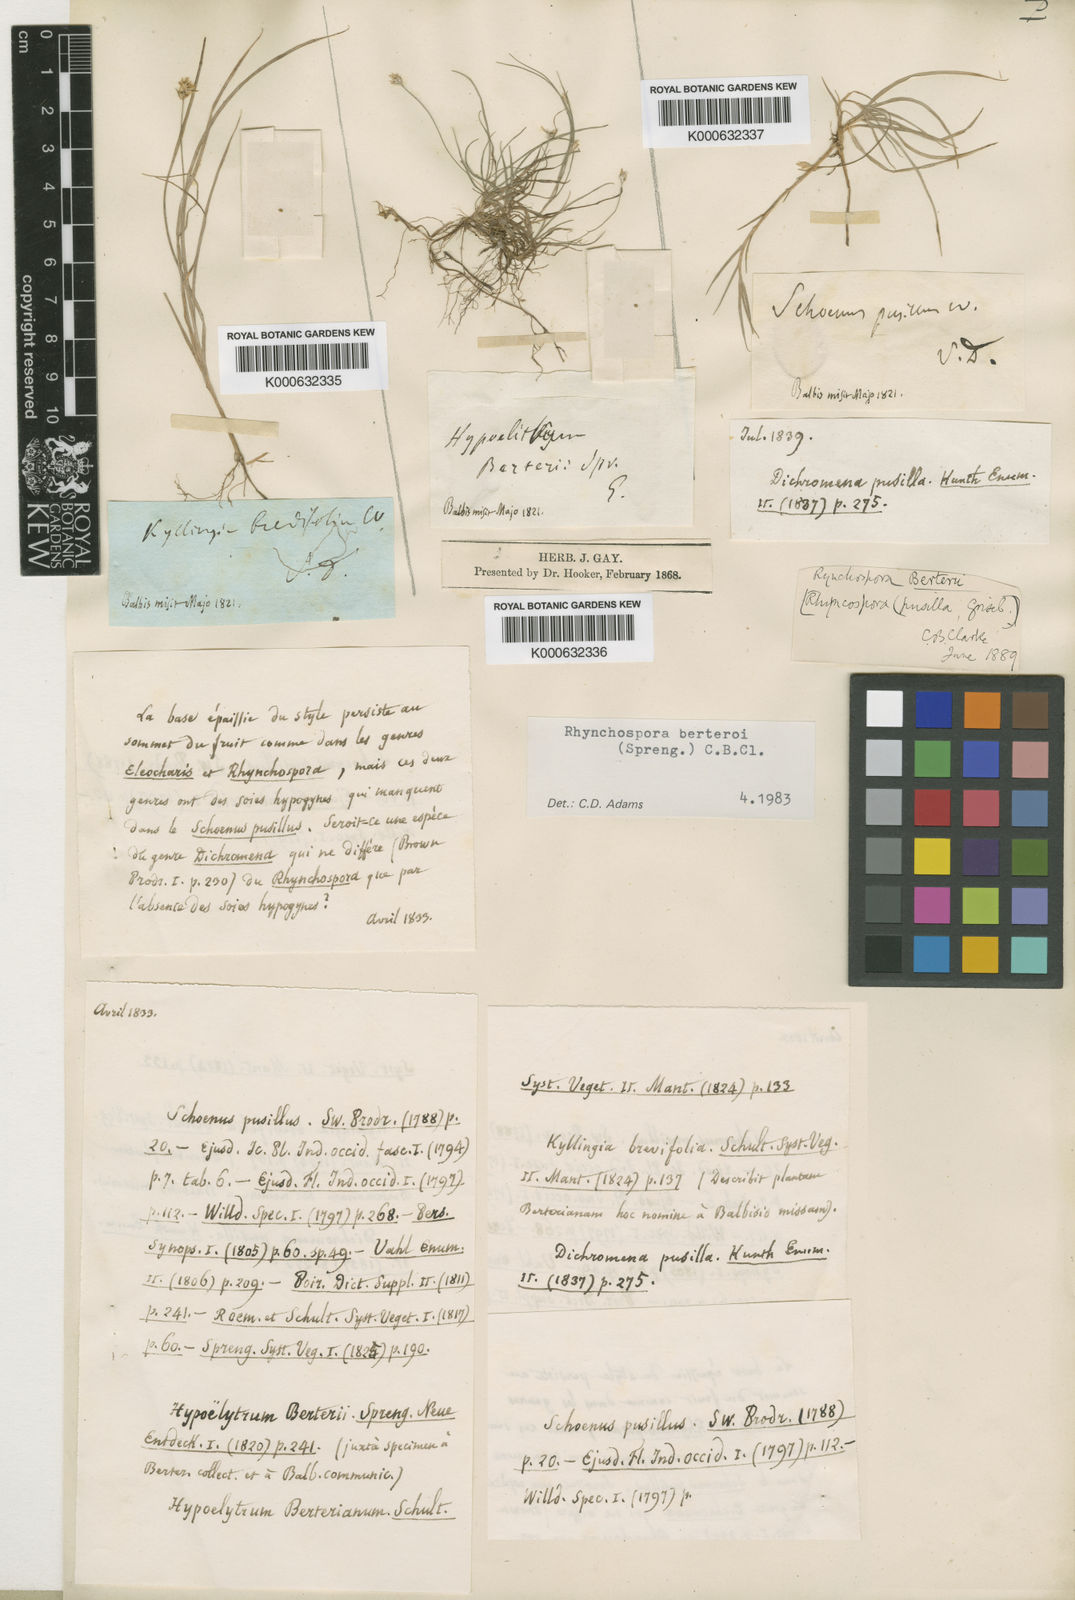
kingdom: Plantae
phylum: Tracheophyta
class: Liliopsida
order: Poales
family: Cyperaceae
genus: Rhynchospora
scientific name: Rhynchospora berteroi
